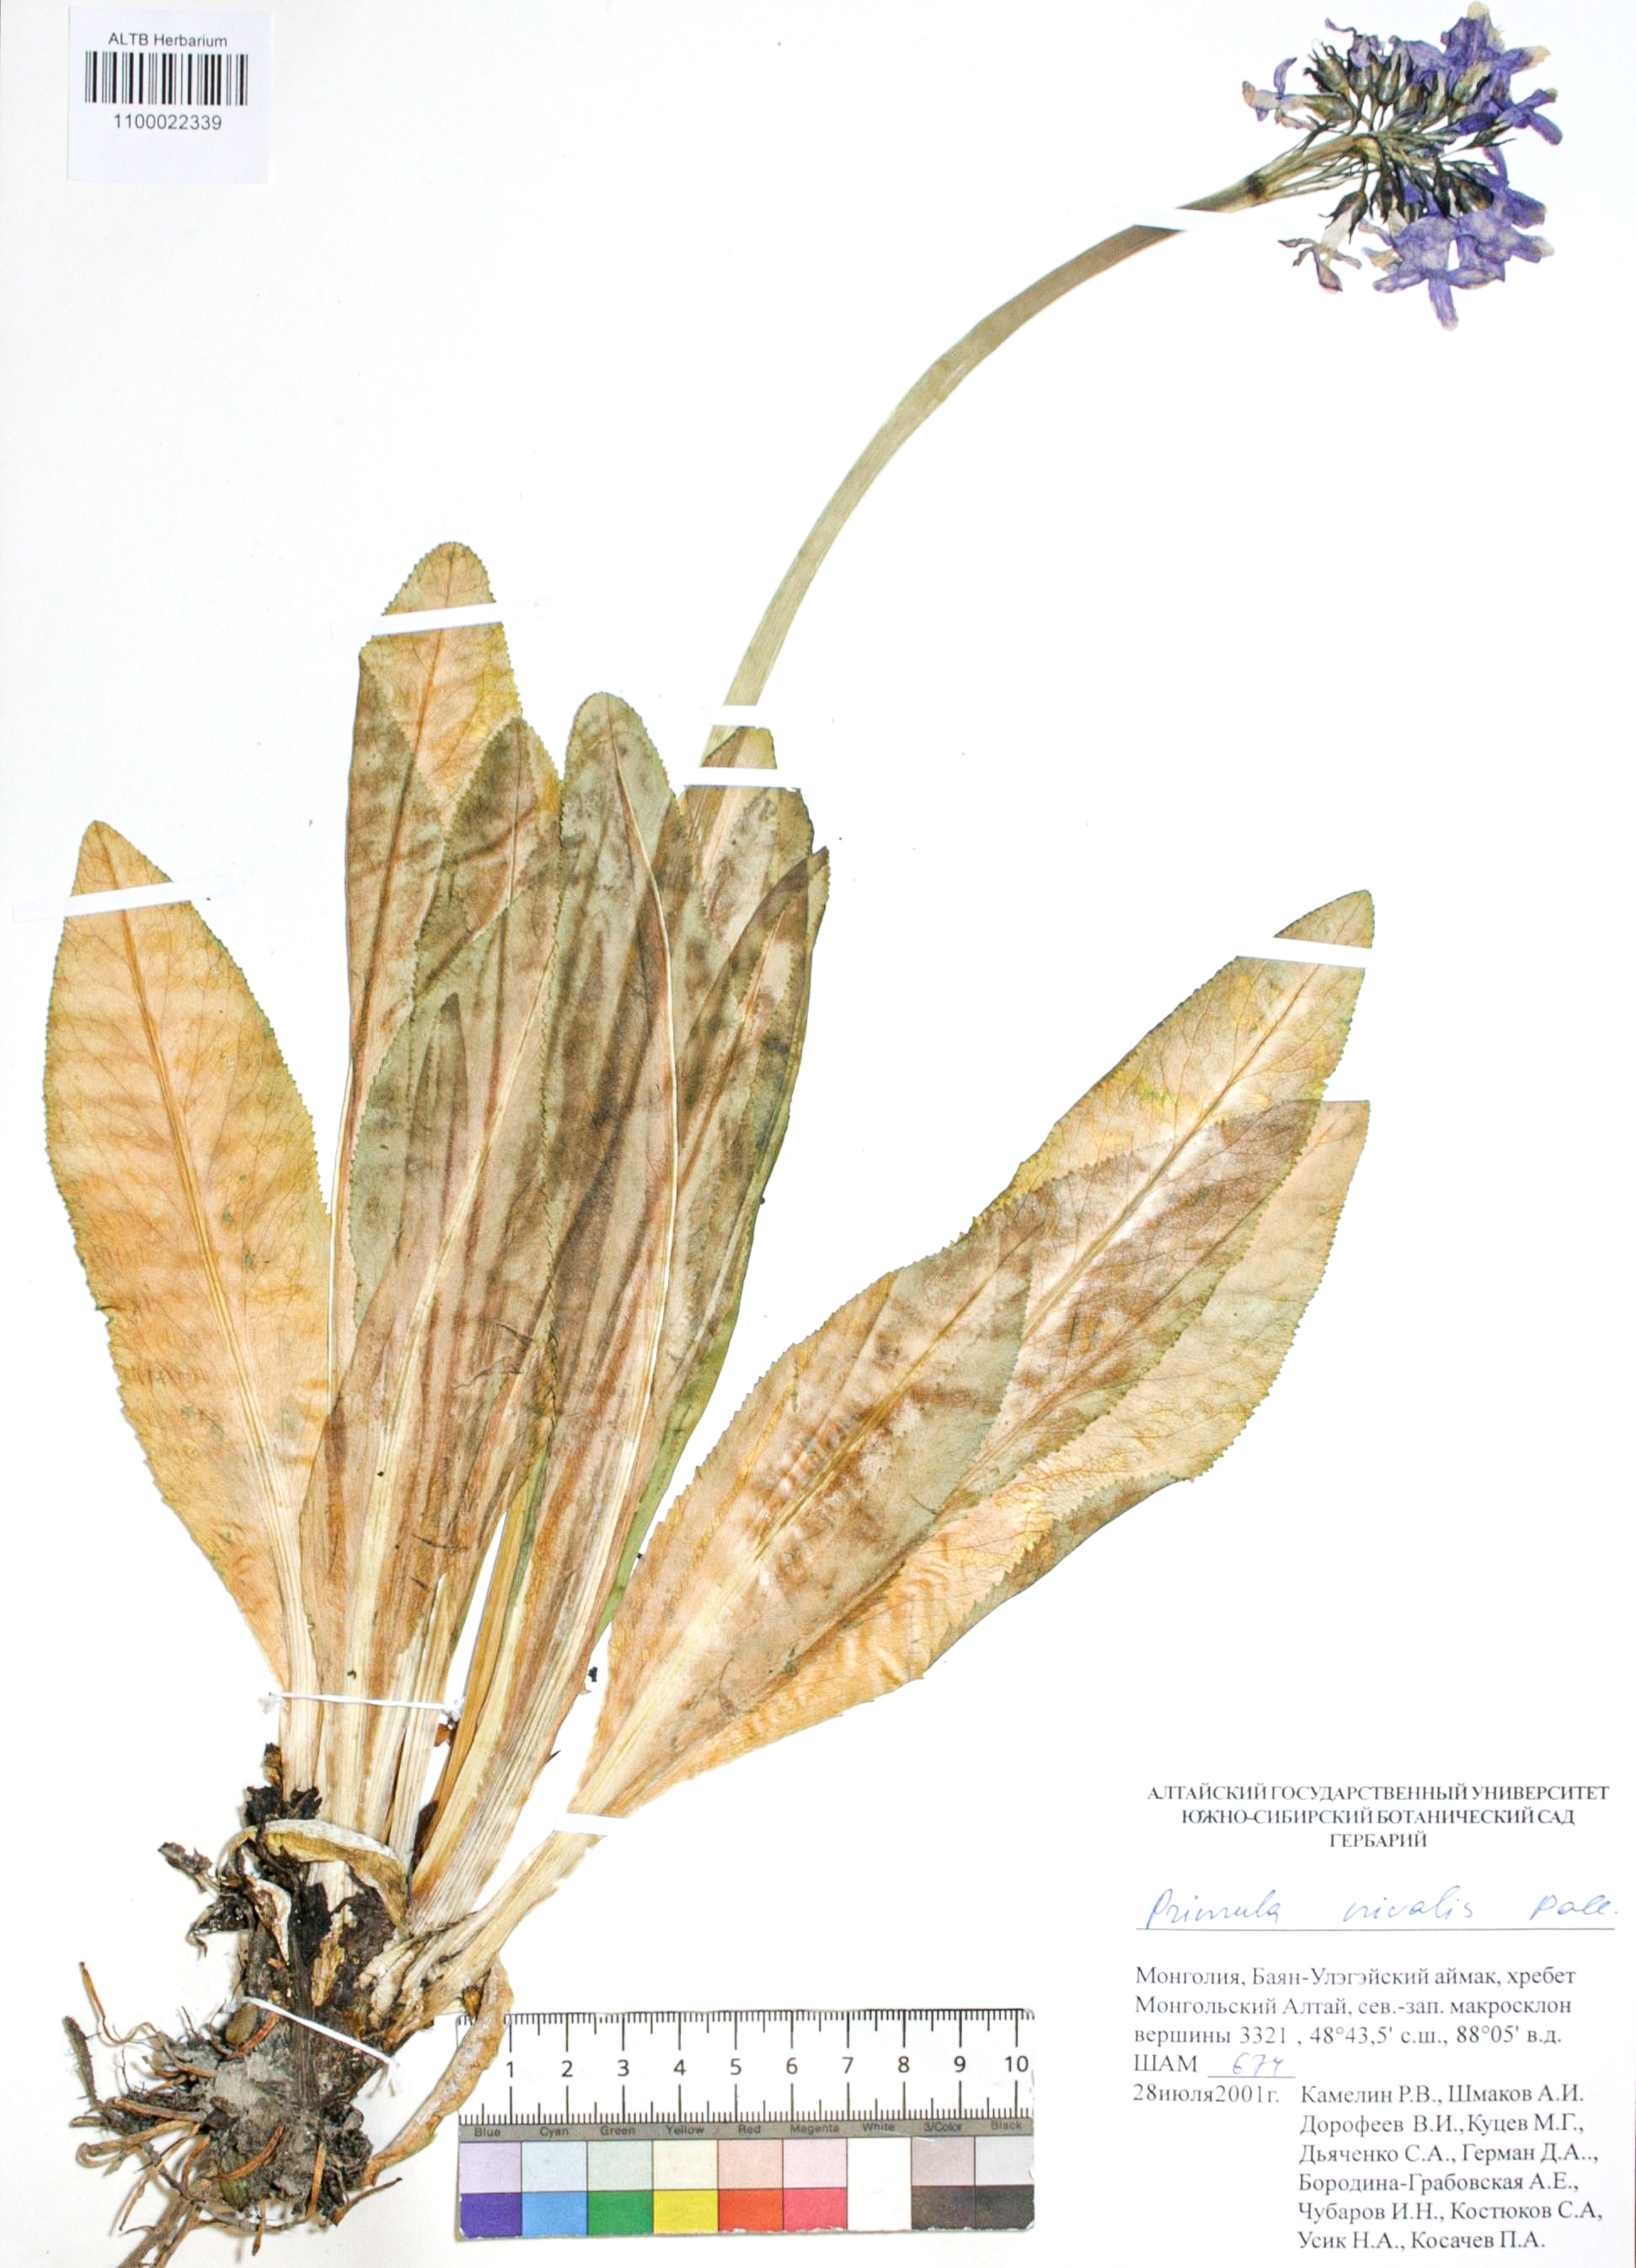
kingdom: Plantae
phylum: Tracheophyta
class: Magnoliopsida
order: Ericales
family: Primulaceae
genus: Primula
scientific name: Primula nivalis
